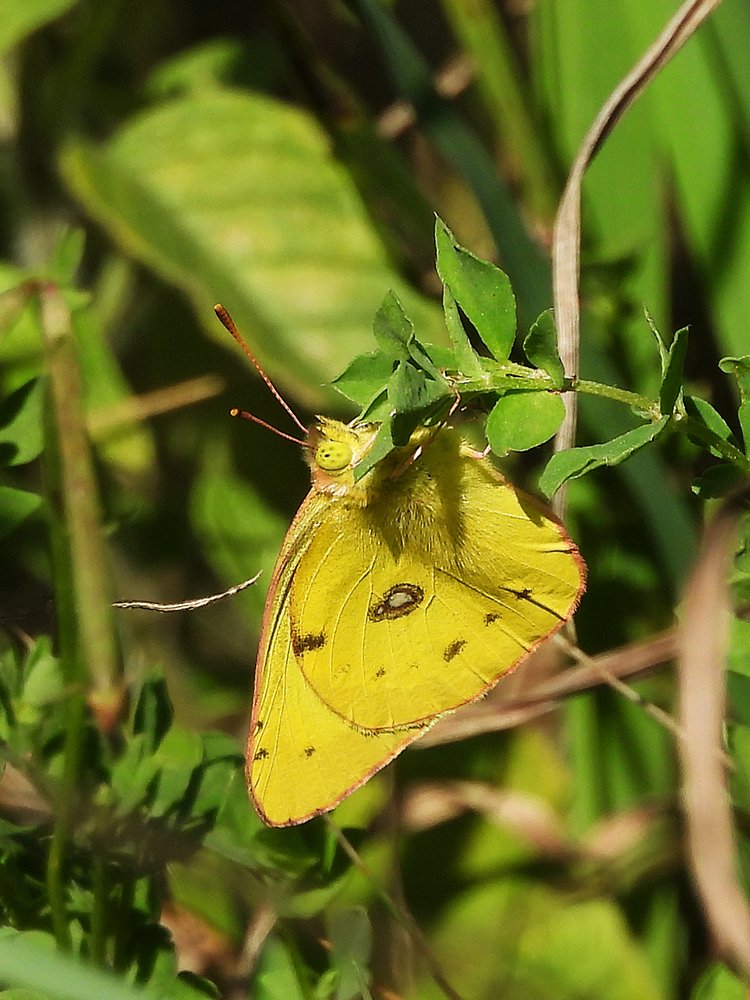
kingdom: Animalia
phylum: Arthropoda
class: Insecta
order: Lepidoptera
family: Pieridae
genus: Colias
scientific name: Colias philodice
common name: Clouded Sulphur
